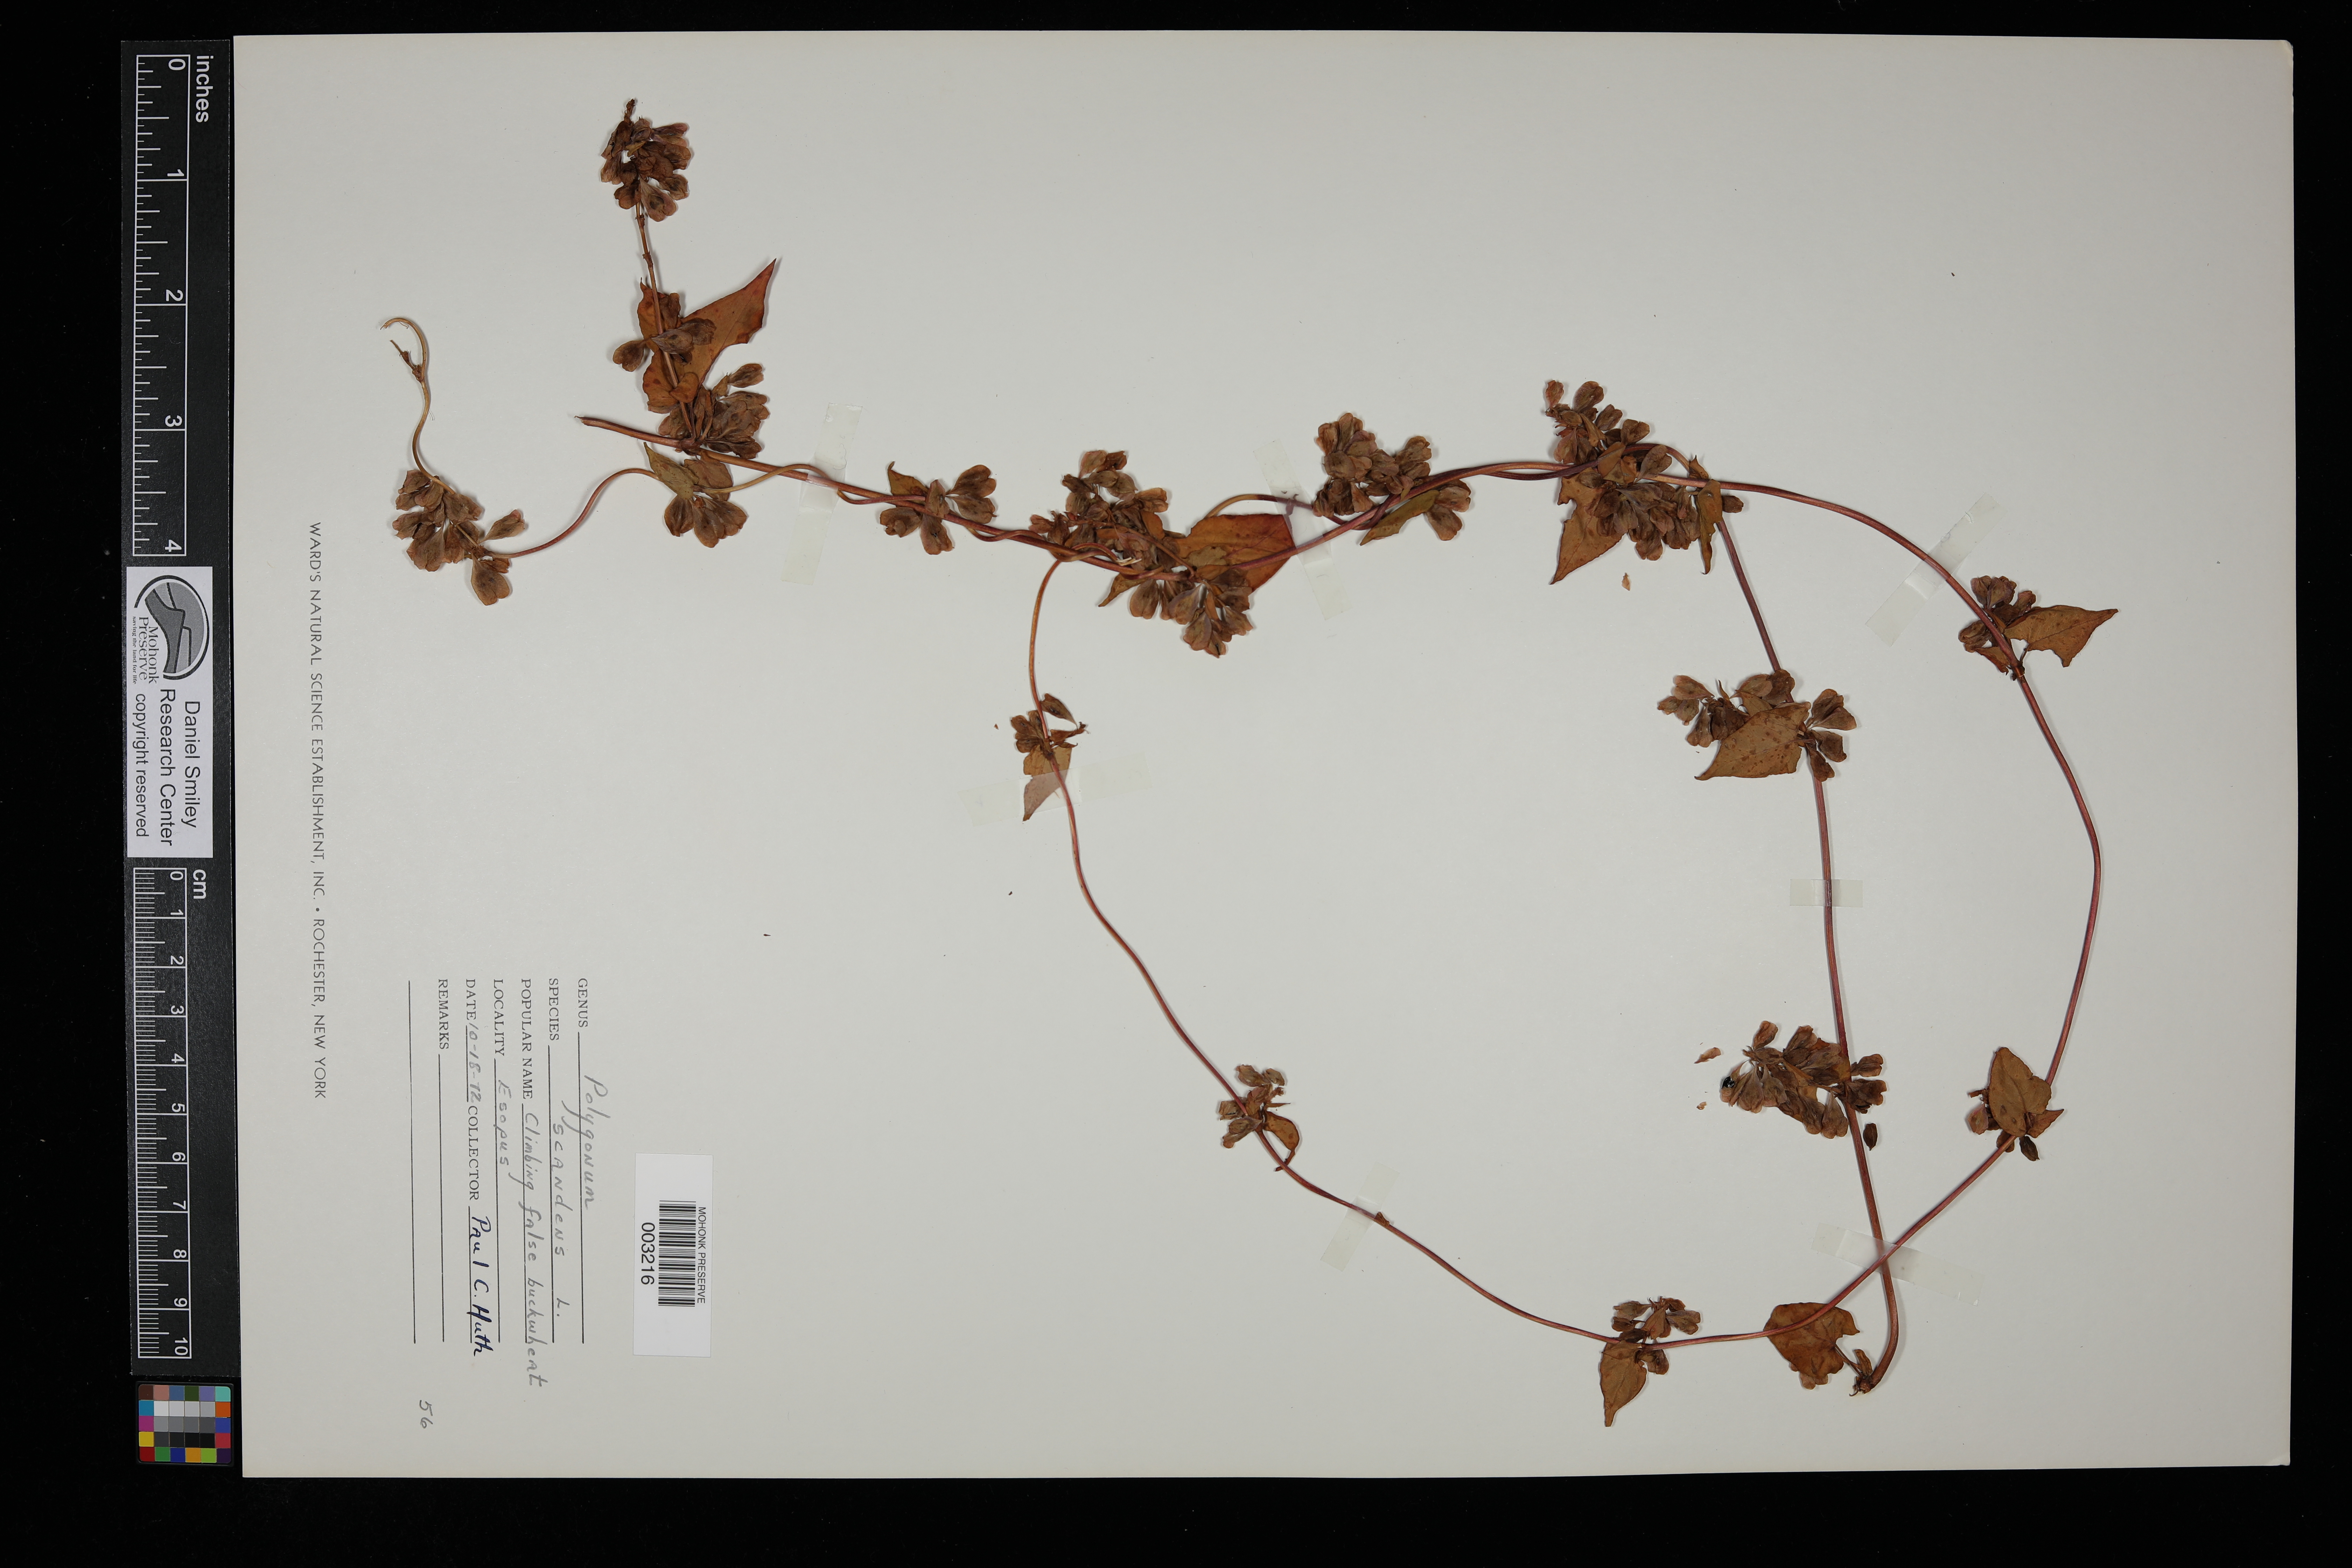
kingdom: Plantae
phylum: Tracheophyta
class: Magnoliopsida
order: Caryophyllales
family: Polygonaceae
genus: Fallopia
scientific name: Fallopia scandens
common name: Climbing false buckwheat
